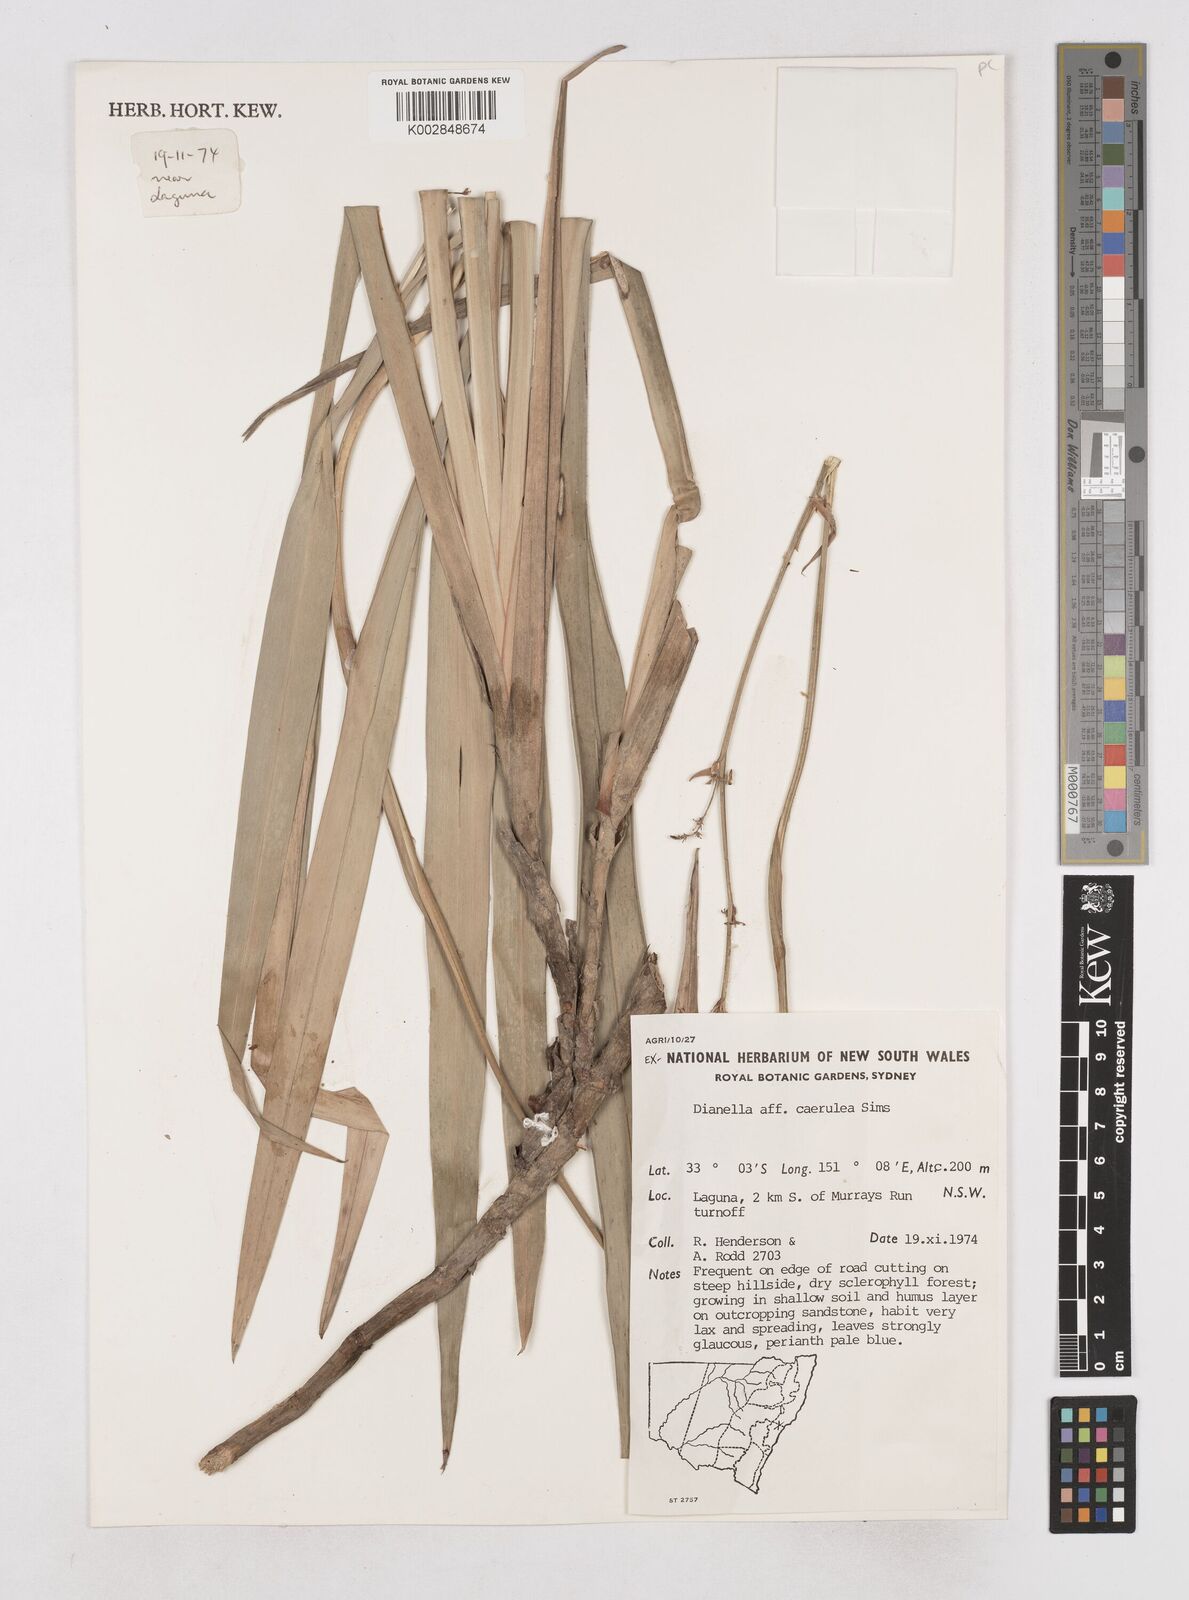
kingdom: Plantae
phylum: Tracheophyta
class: Liliopsida
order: Asparagales
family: Asphodelaceae
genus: Dianella
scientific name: Dianella caerulea
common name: Blue flax-lily
